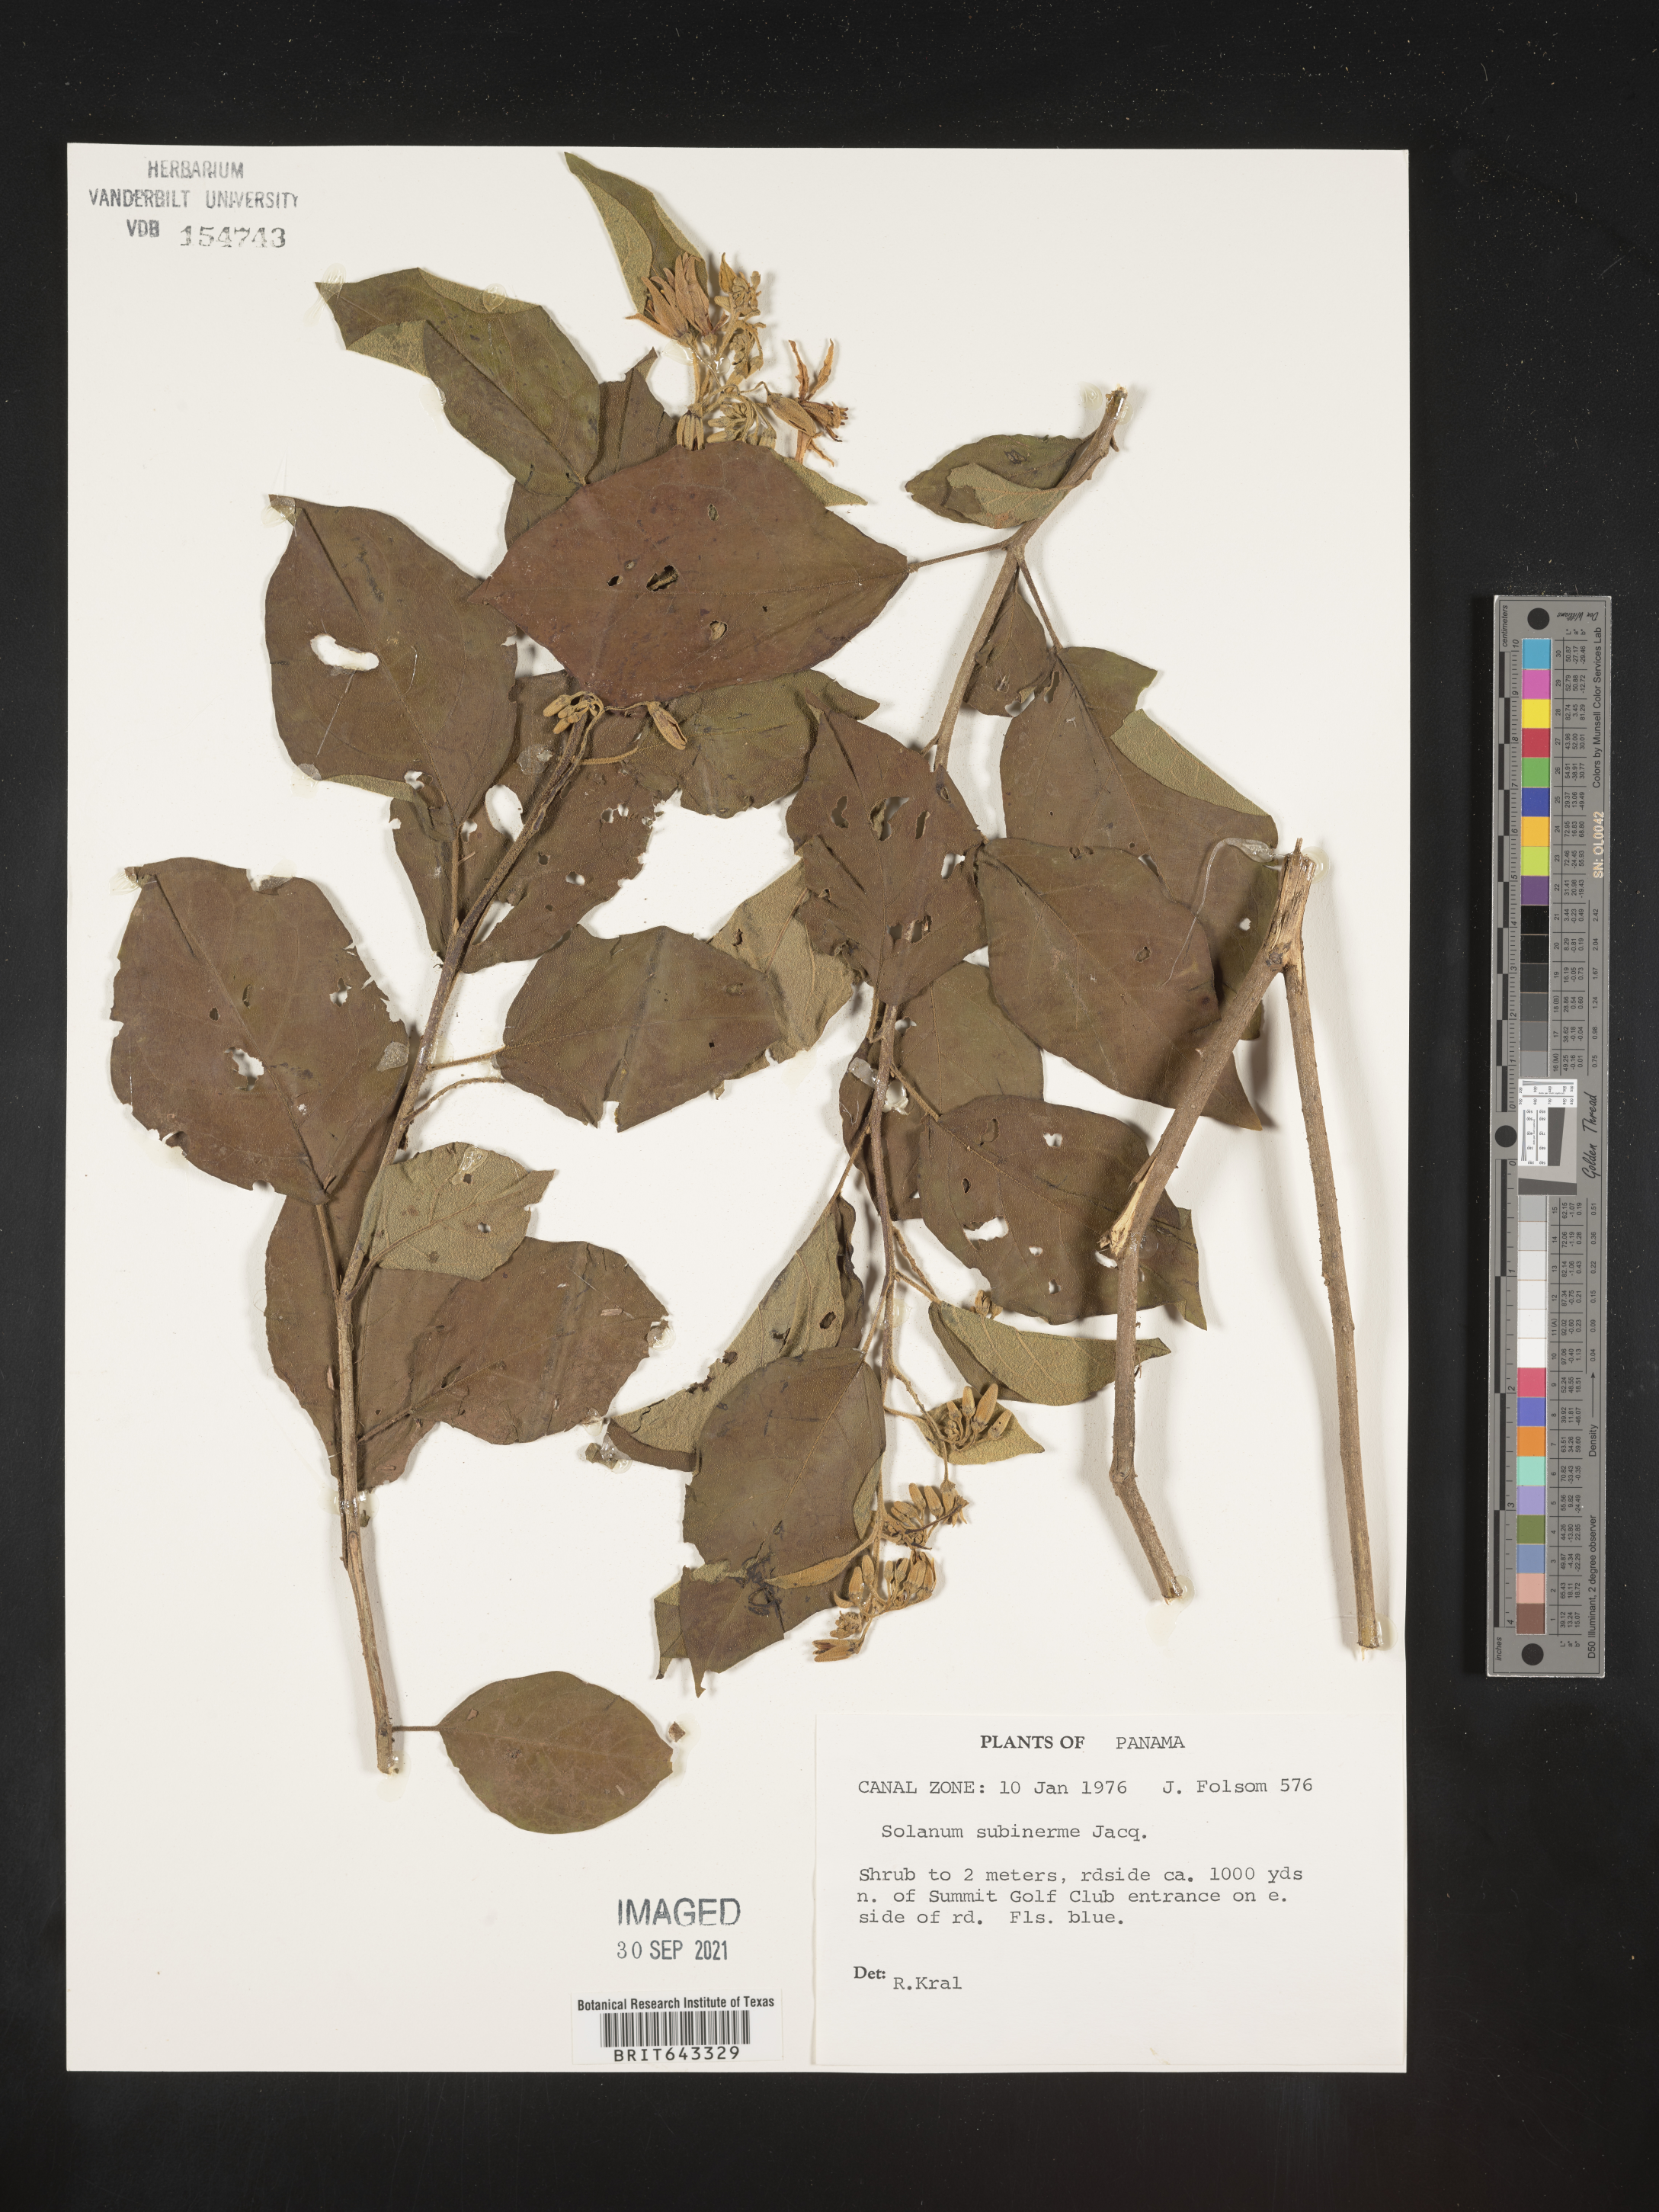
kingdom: Plantae
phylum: Tracheophyta
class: Magnoliopsida
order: Solanales
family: Solanaceae
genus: Solanum
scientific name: Solanum
